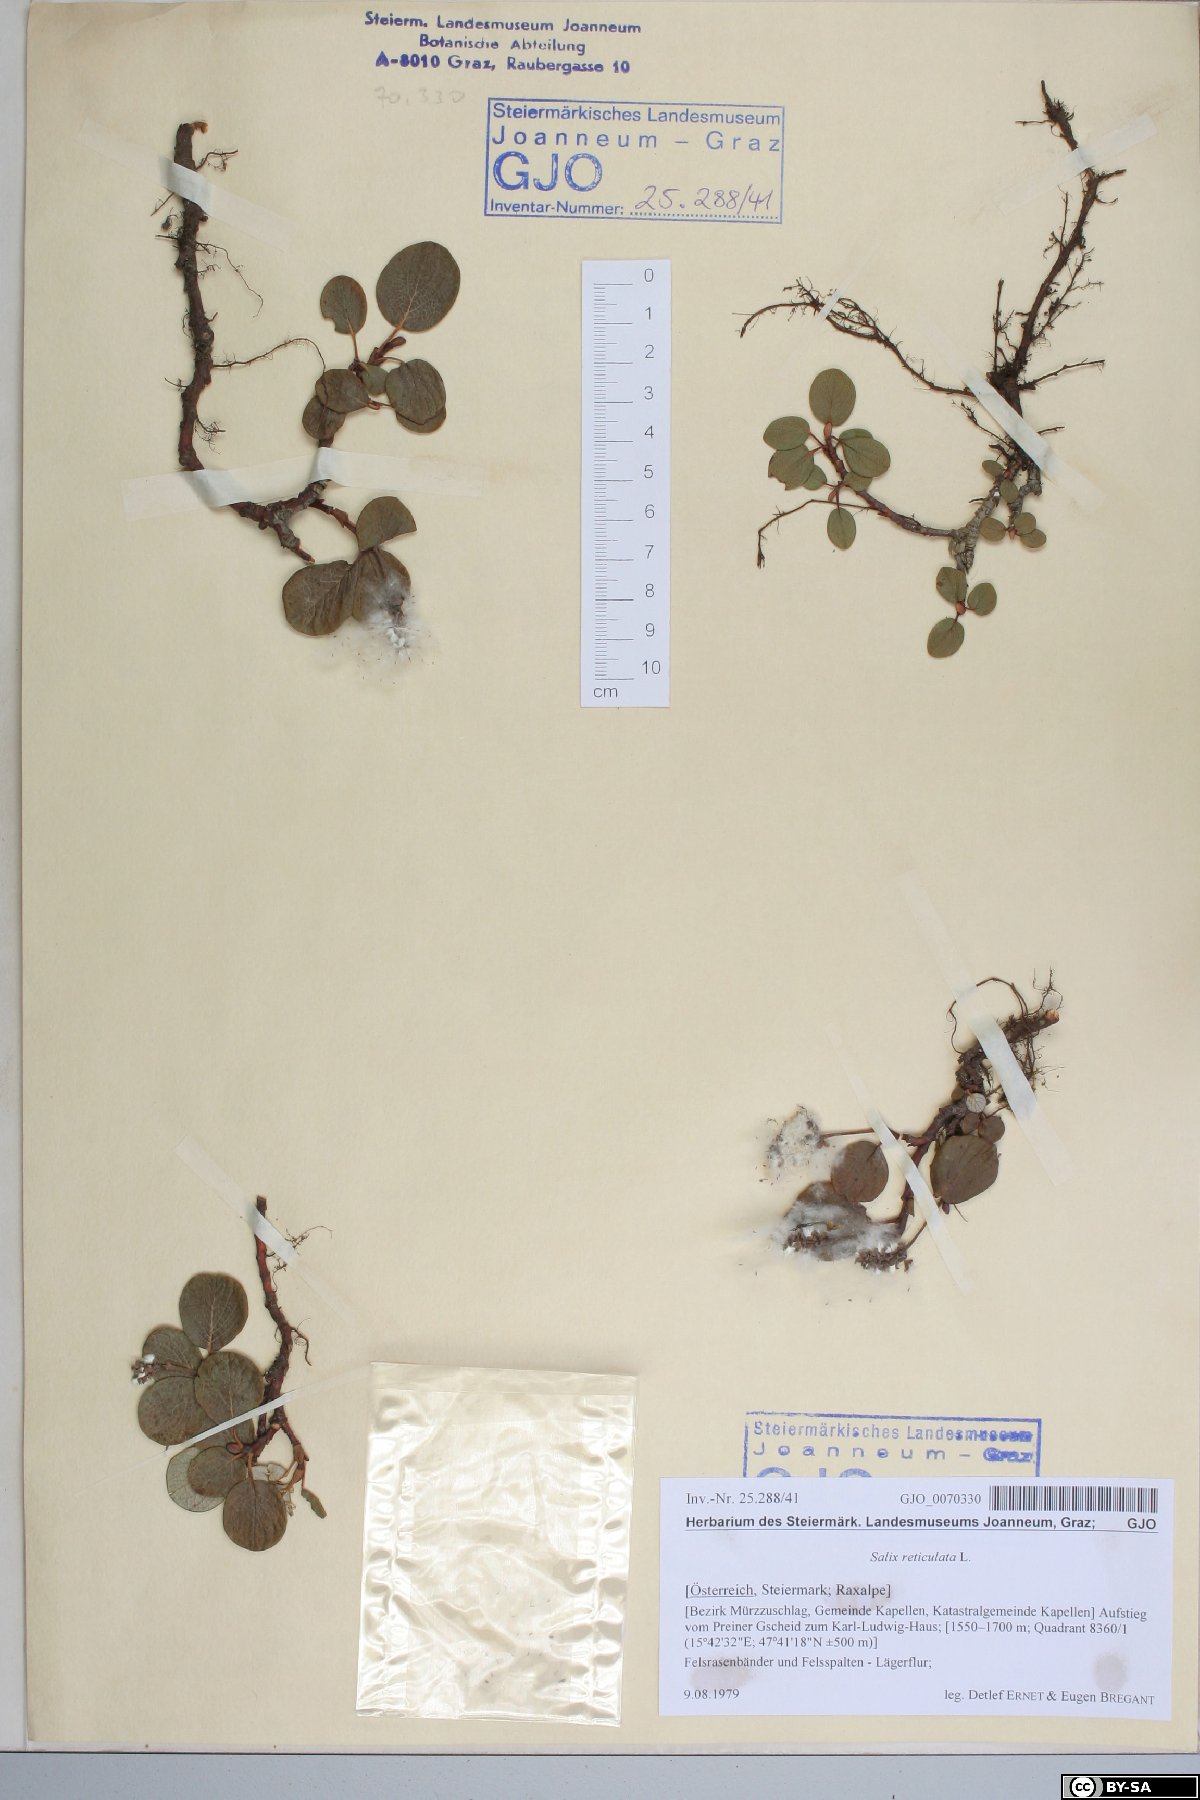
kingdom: Plantae
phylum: Tracheophyta
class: Magnoliopsida
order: Malpighiales
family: Salicaceae
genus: Salix
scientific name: Salix reticulata
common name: Net-leaved willow
